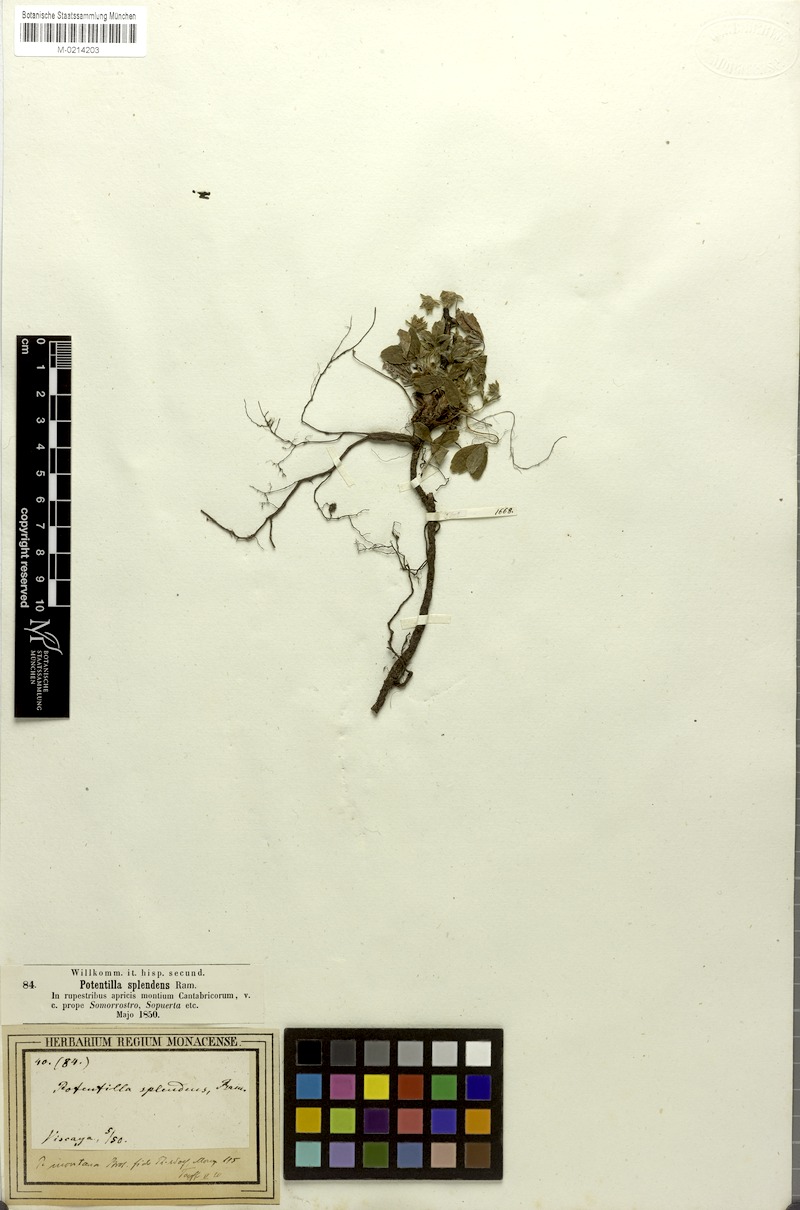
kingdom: Plantae
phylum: Tracheophyta
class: Magnoliopsida
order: Rosales
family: Rosaceae
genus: Potentilla
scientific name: Potentilla montana
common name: Mountain cinquefoil
